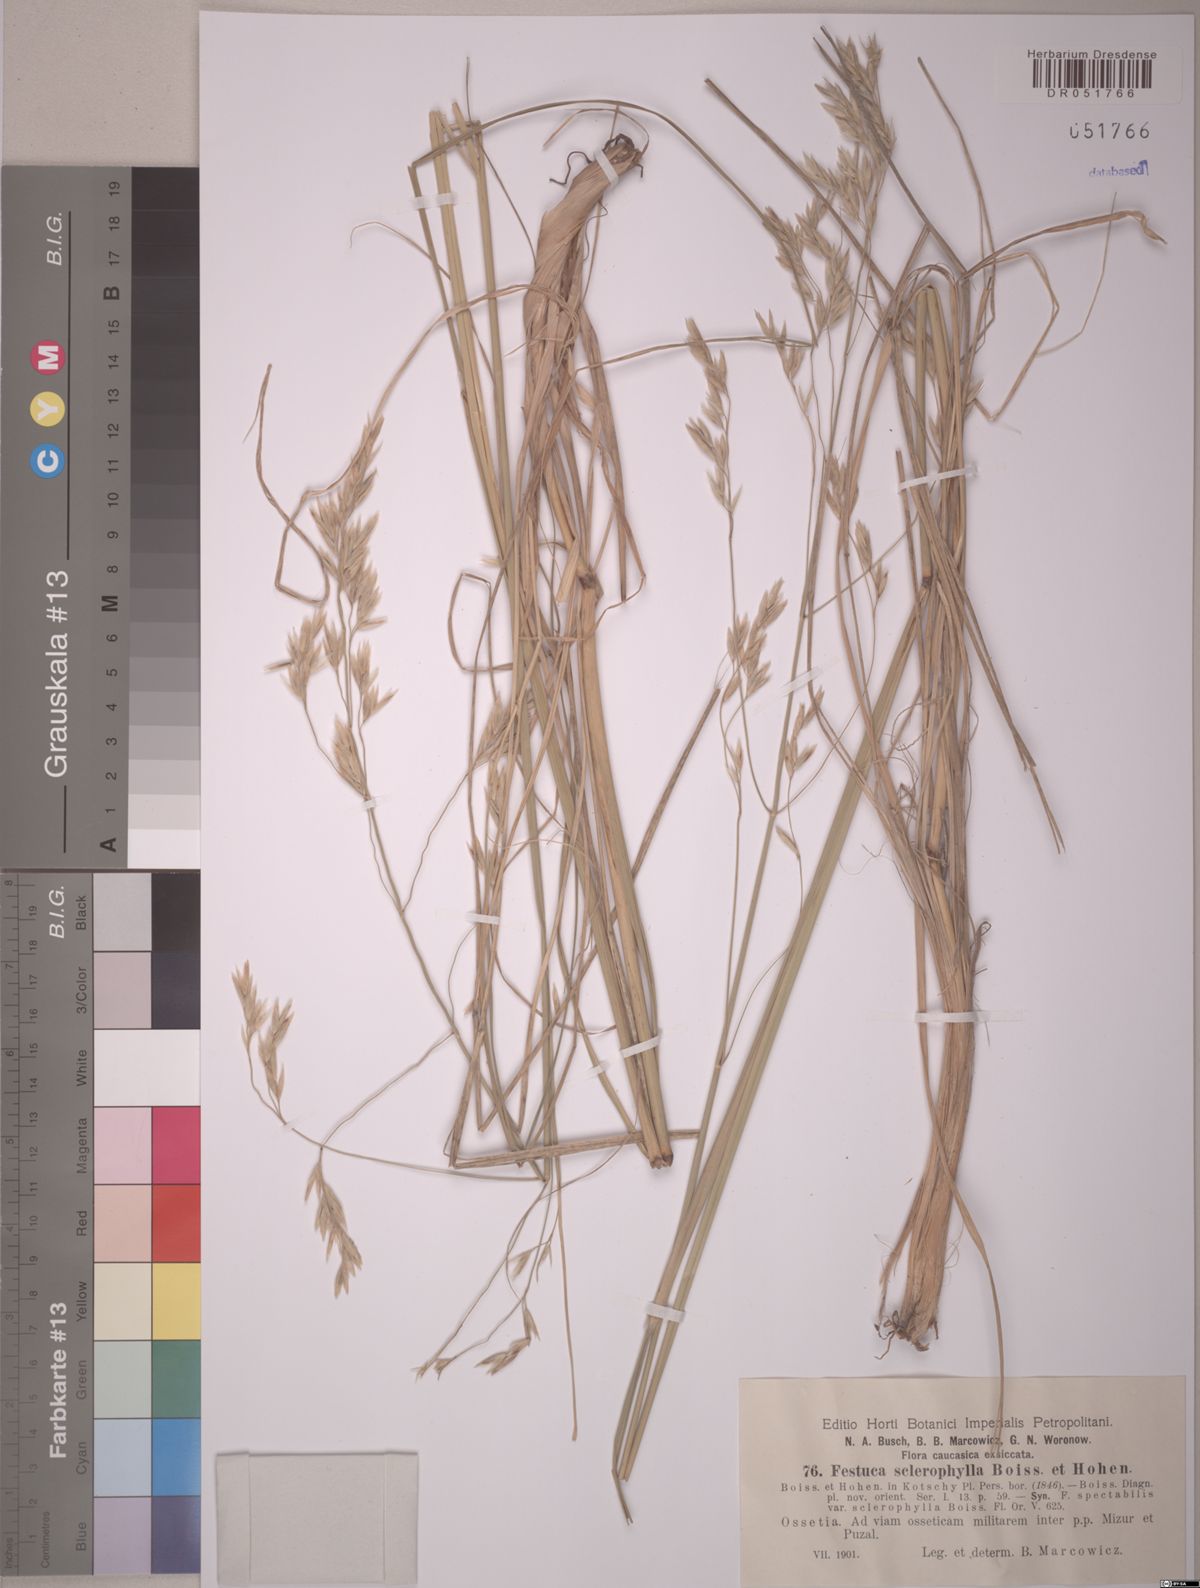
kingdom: Plantae
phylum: Tracheophyta
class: Liliopsida
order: Poales
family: Poaceae
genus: Festuca
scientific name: Festuca sclerophylla
